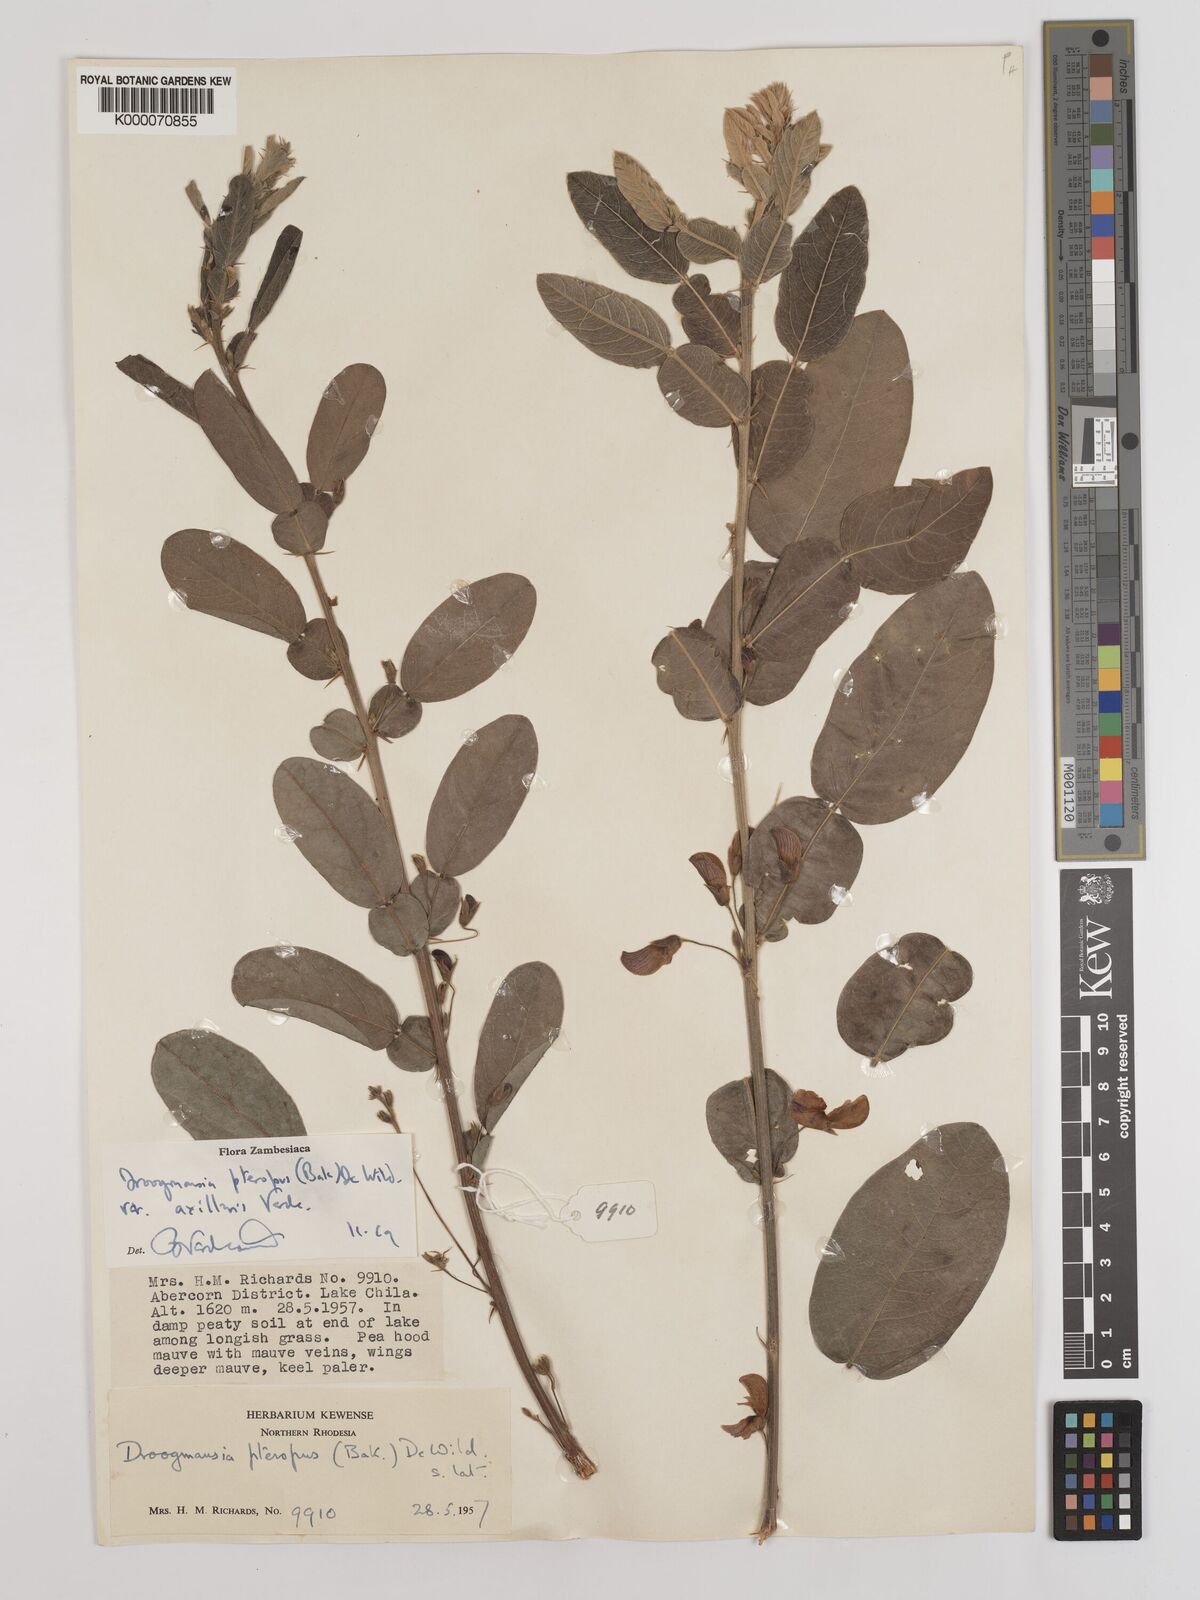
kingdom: Plantae
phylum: Tracheophyta
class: Magnoliopsida
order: Fabales
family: Fabaceae
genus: Droogmansia
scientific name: Droogmansia pteropus
